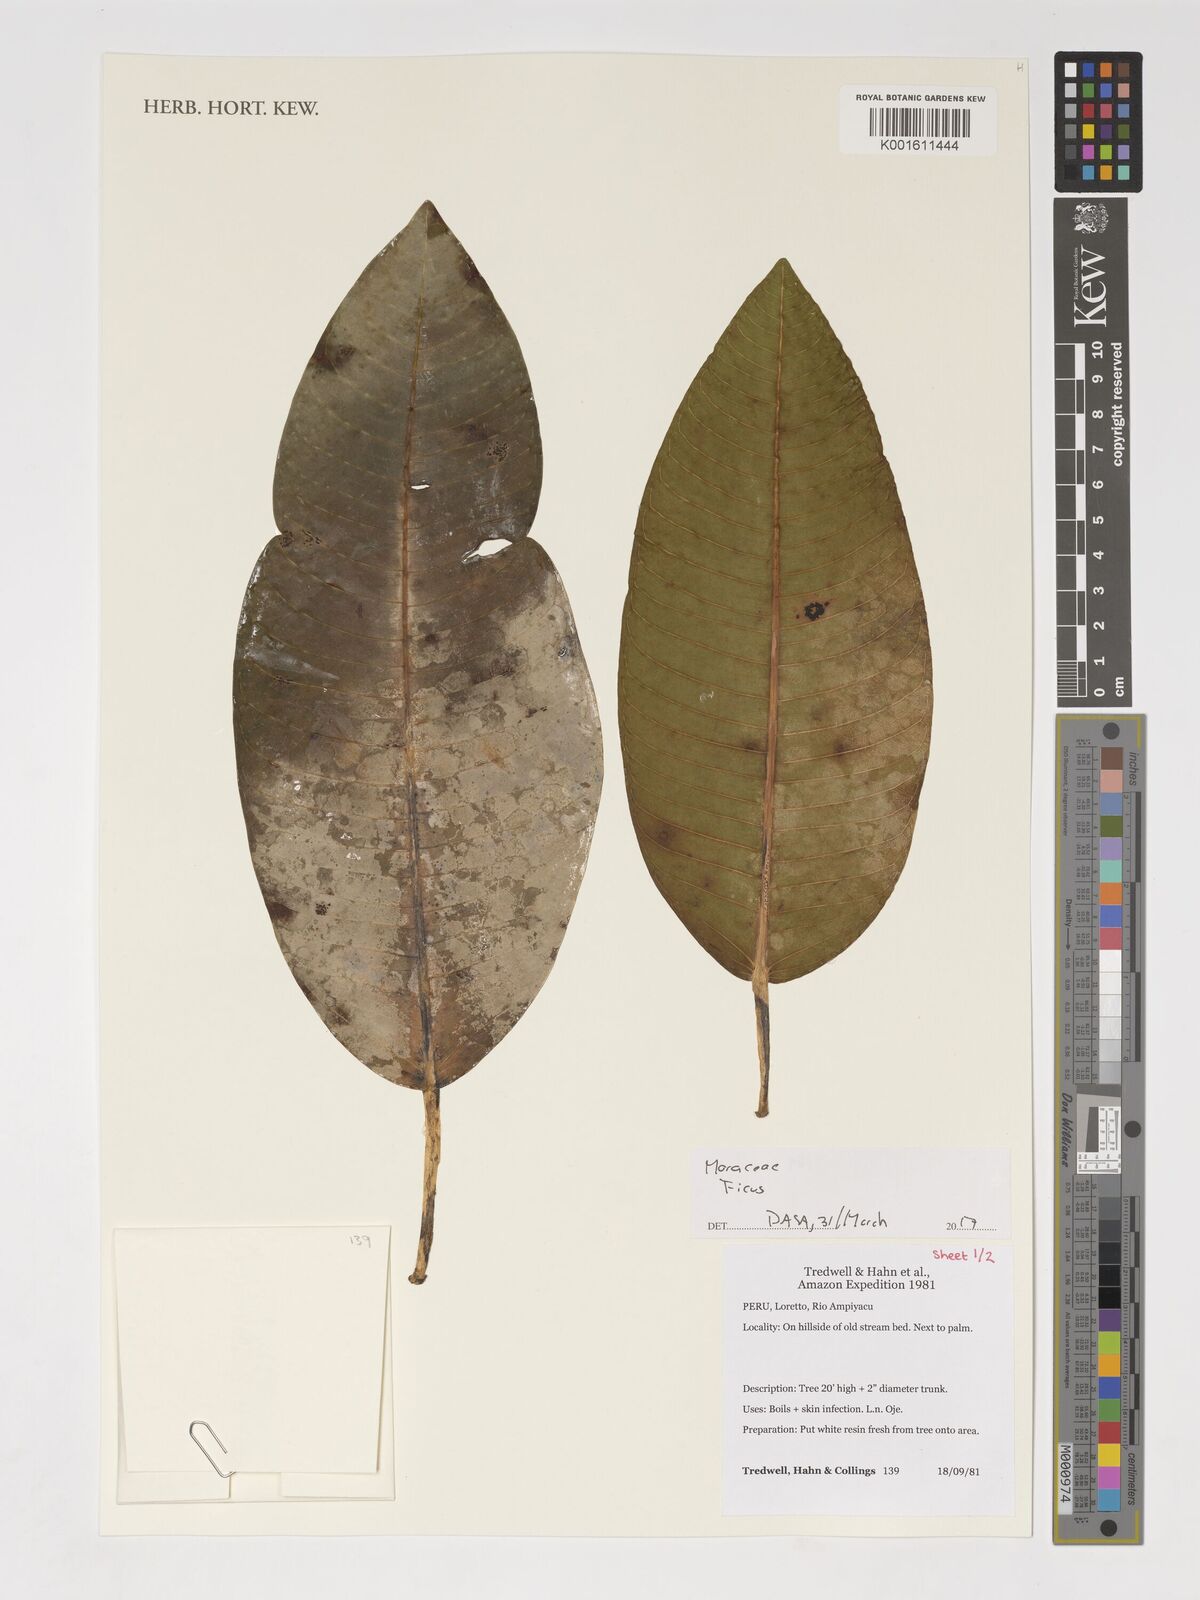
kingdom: Plantae
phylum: Tracheophyta
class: Magnoliopsida
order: Rosales
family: Moraceae
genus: Ficus
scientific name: Ficus
